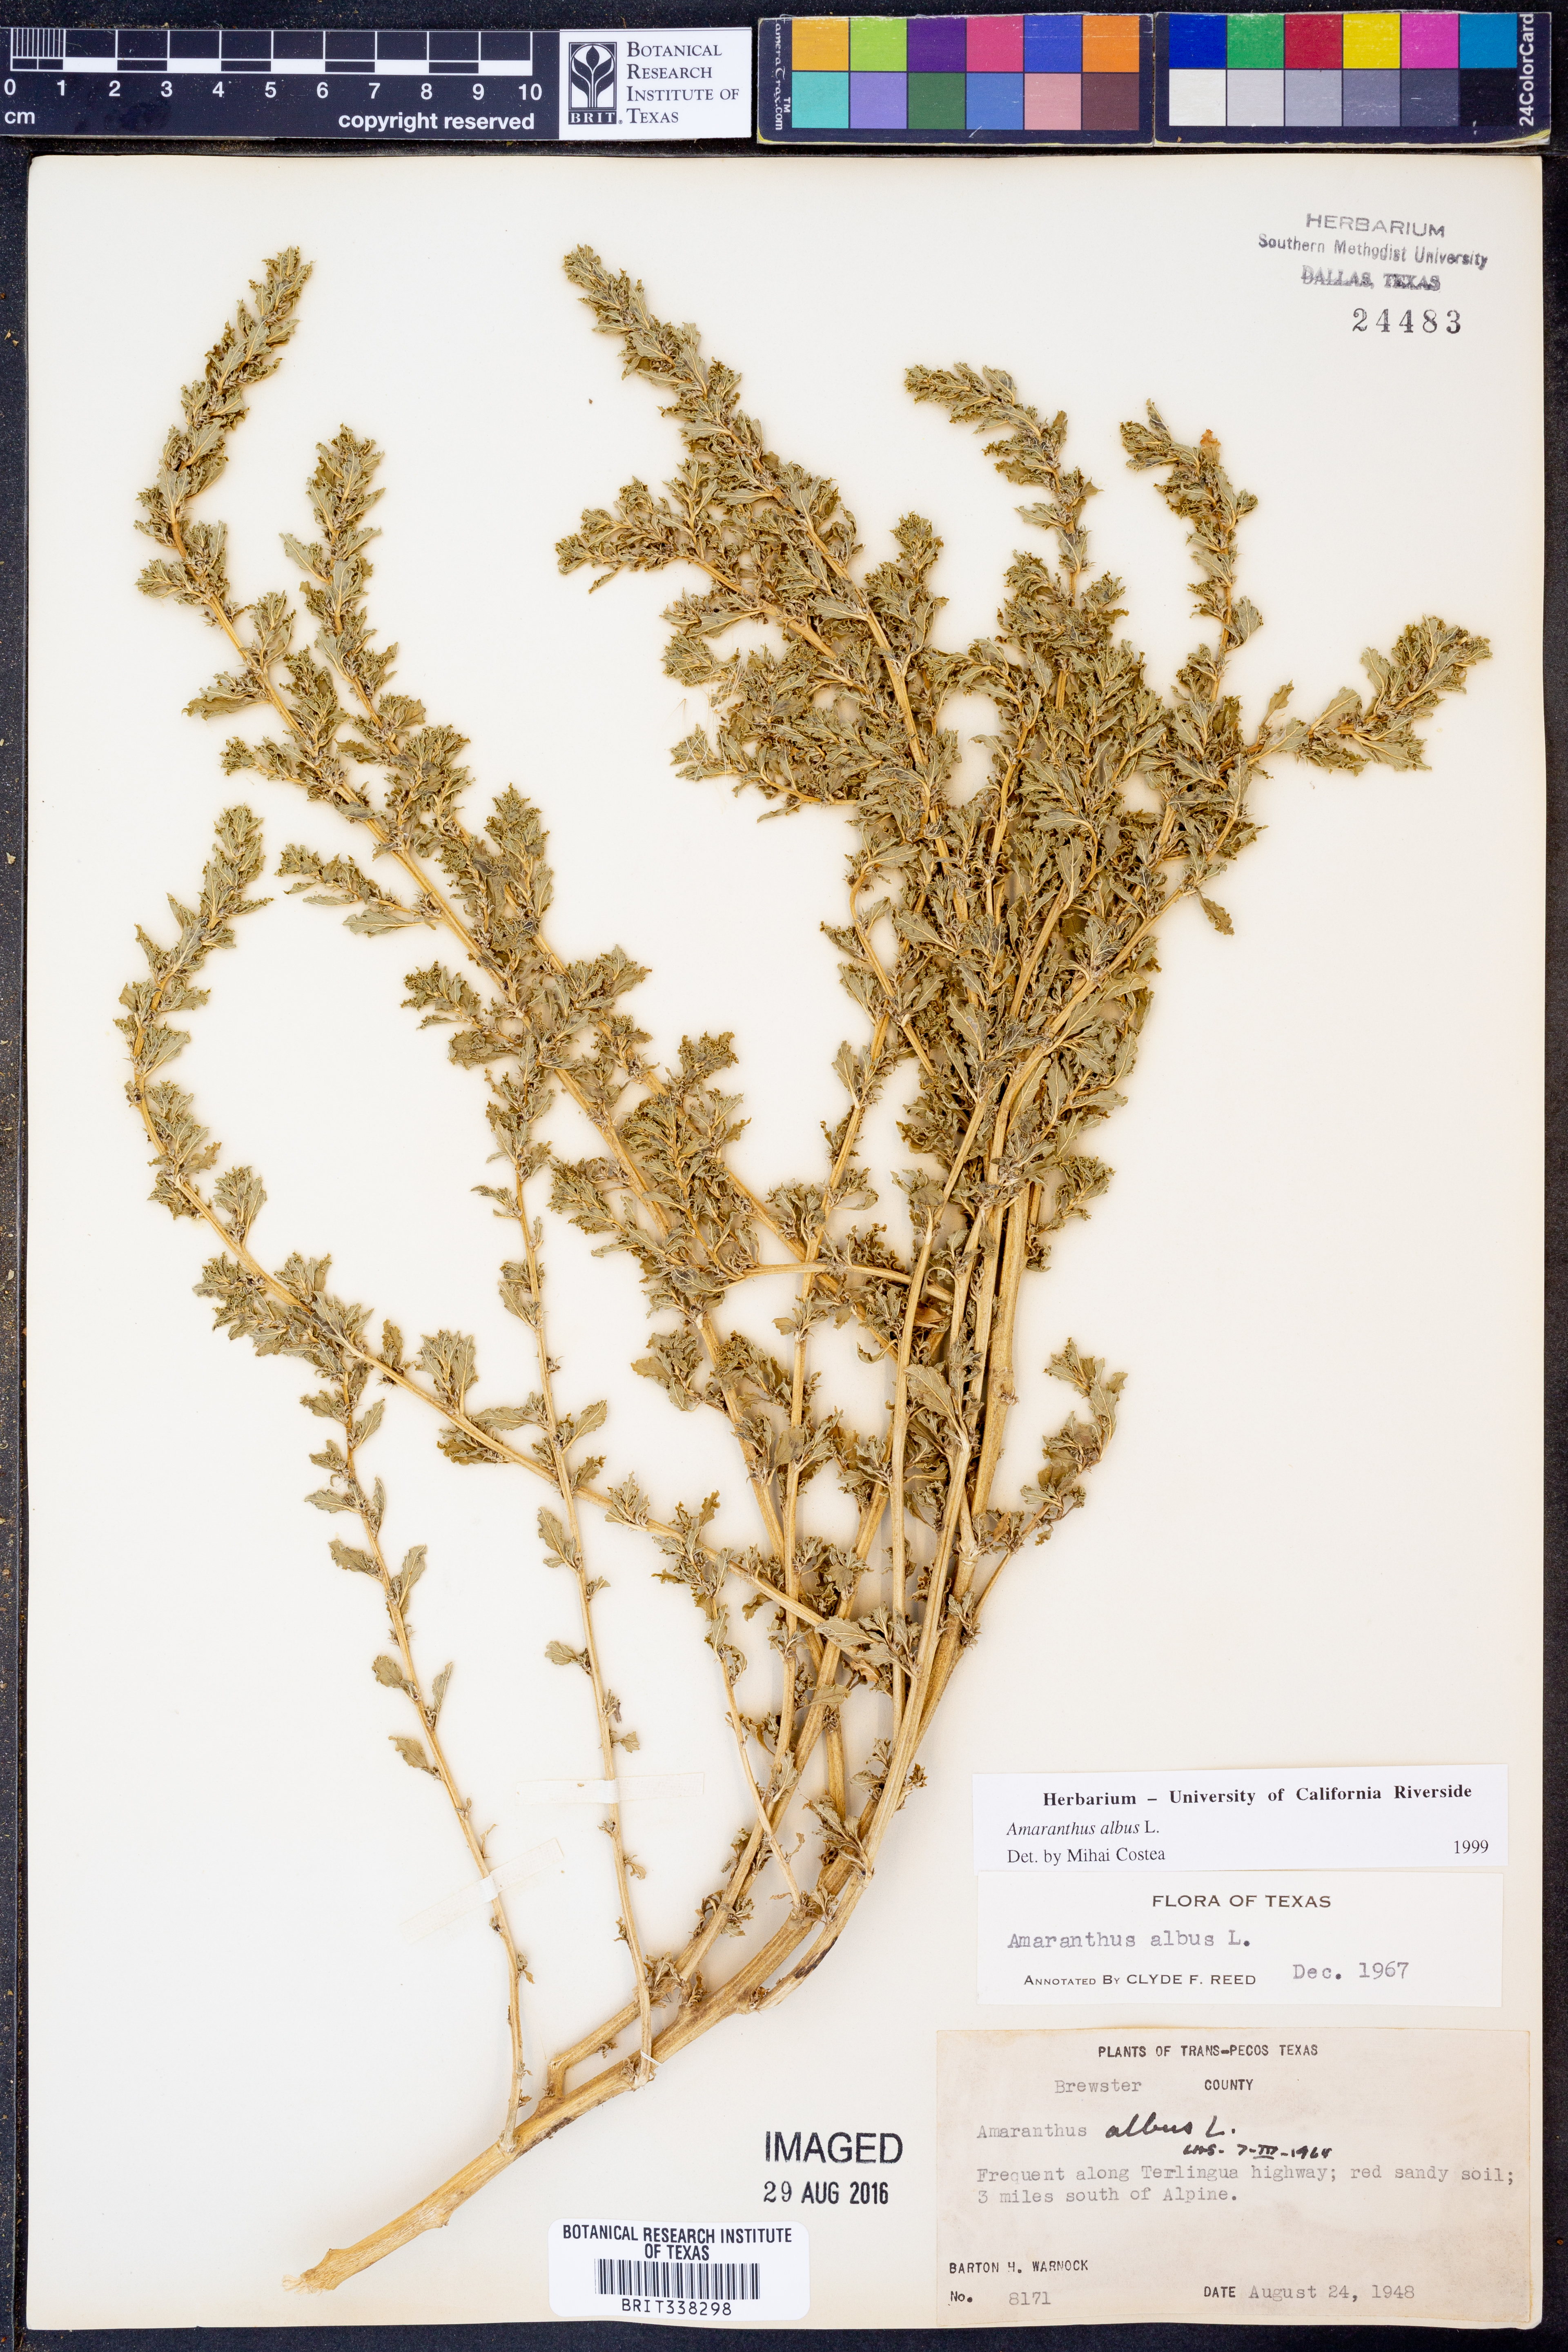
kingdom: Plantae
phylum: Tracheophyta
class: Magnoliopsida
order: Caryophyllales
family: Amaranthaceae
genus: Amaranthus
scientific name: Amaranthus albus
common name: White pigweed
